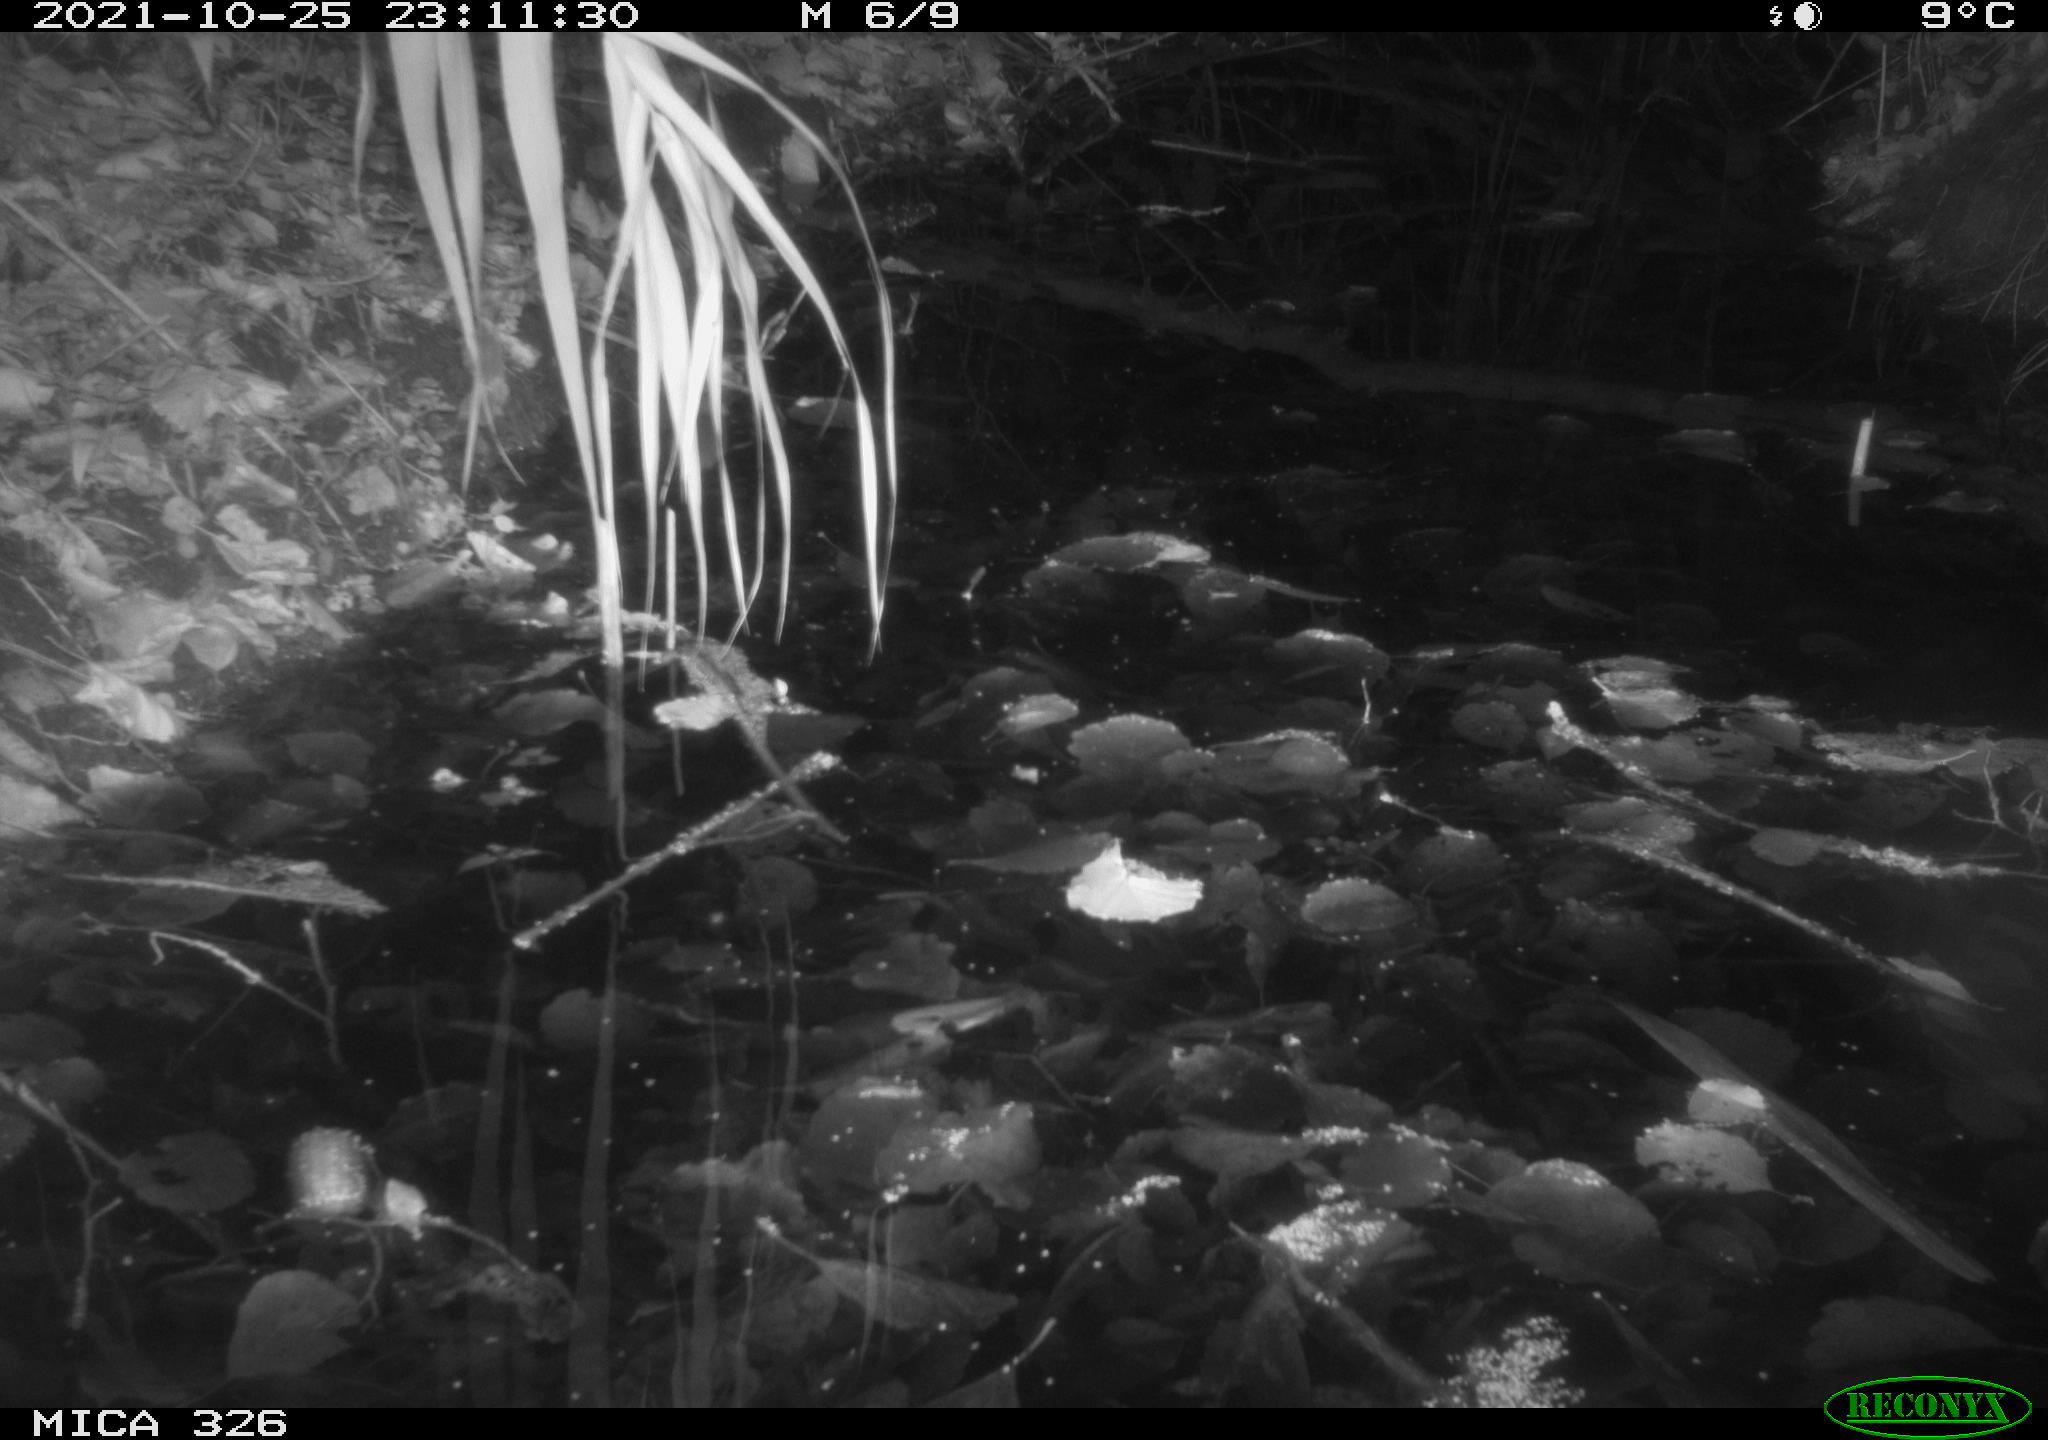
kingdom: Animalia
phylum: Chordata
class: Mammalia
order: Rodentia
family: Muridae
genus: Rattus
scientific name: Rattus norvegicus
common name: Brown rat
